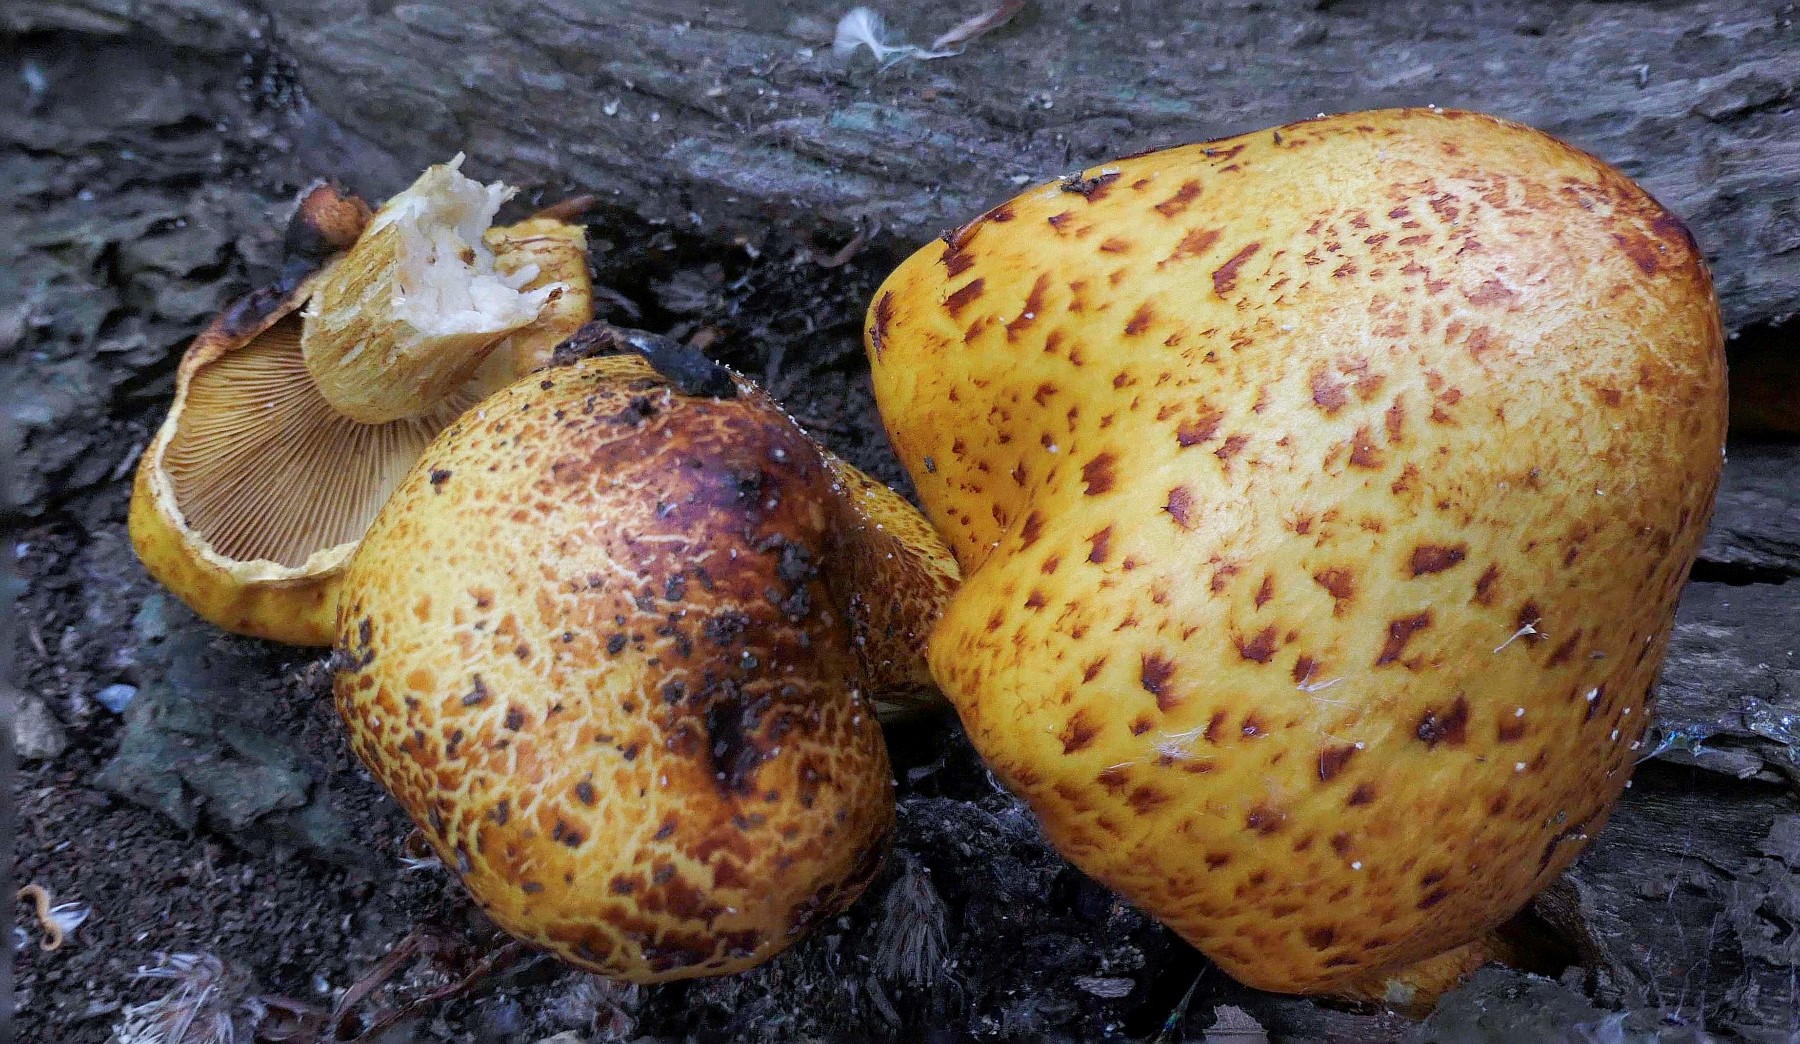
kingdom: Fungi
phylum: Basidiomycota
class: Agaricomycetes
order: Agaricales
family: Strophariaceae
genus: Pholiota
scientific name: Pholiota
